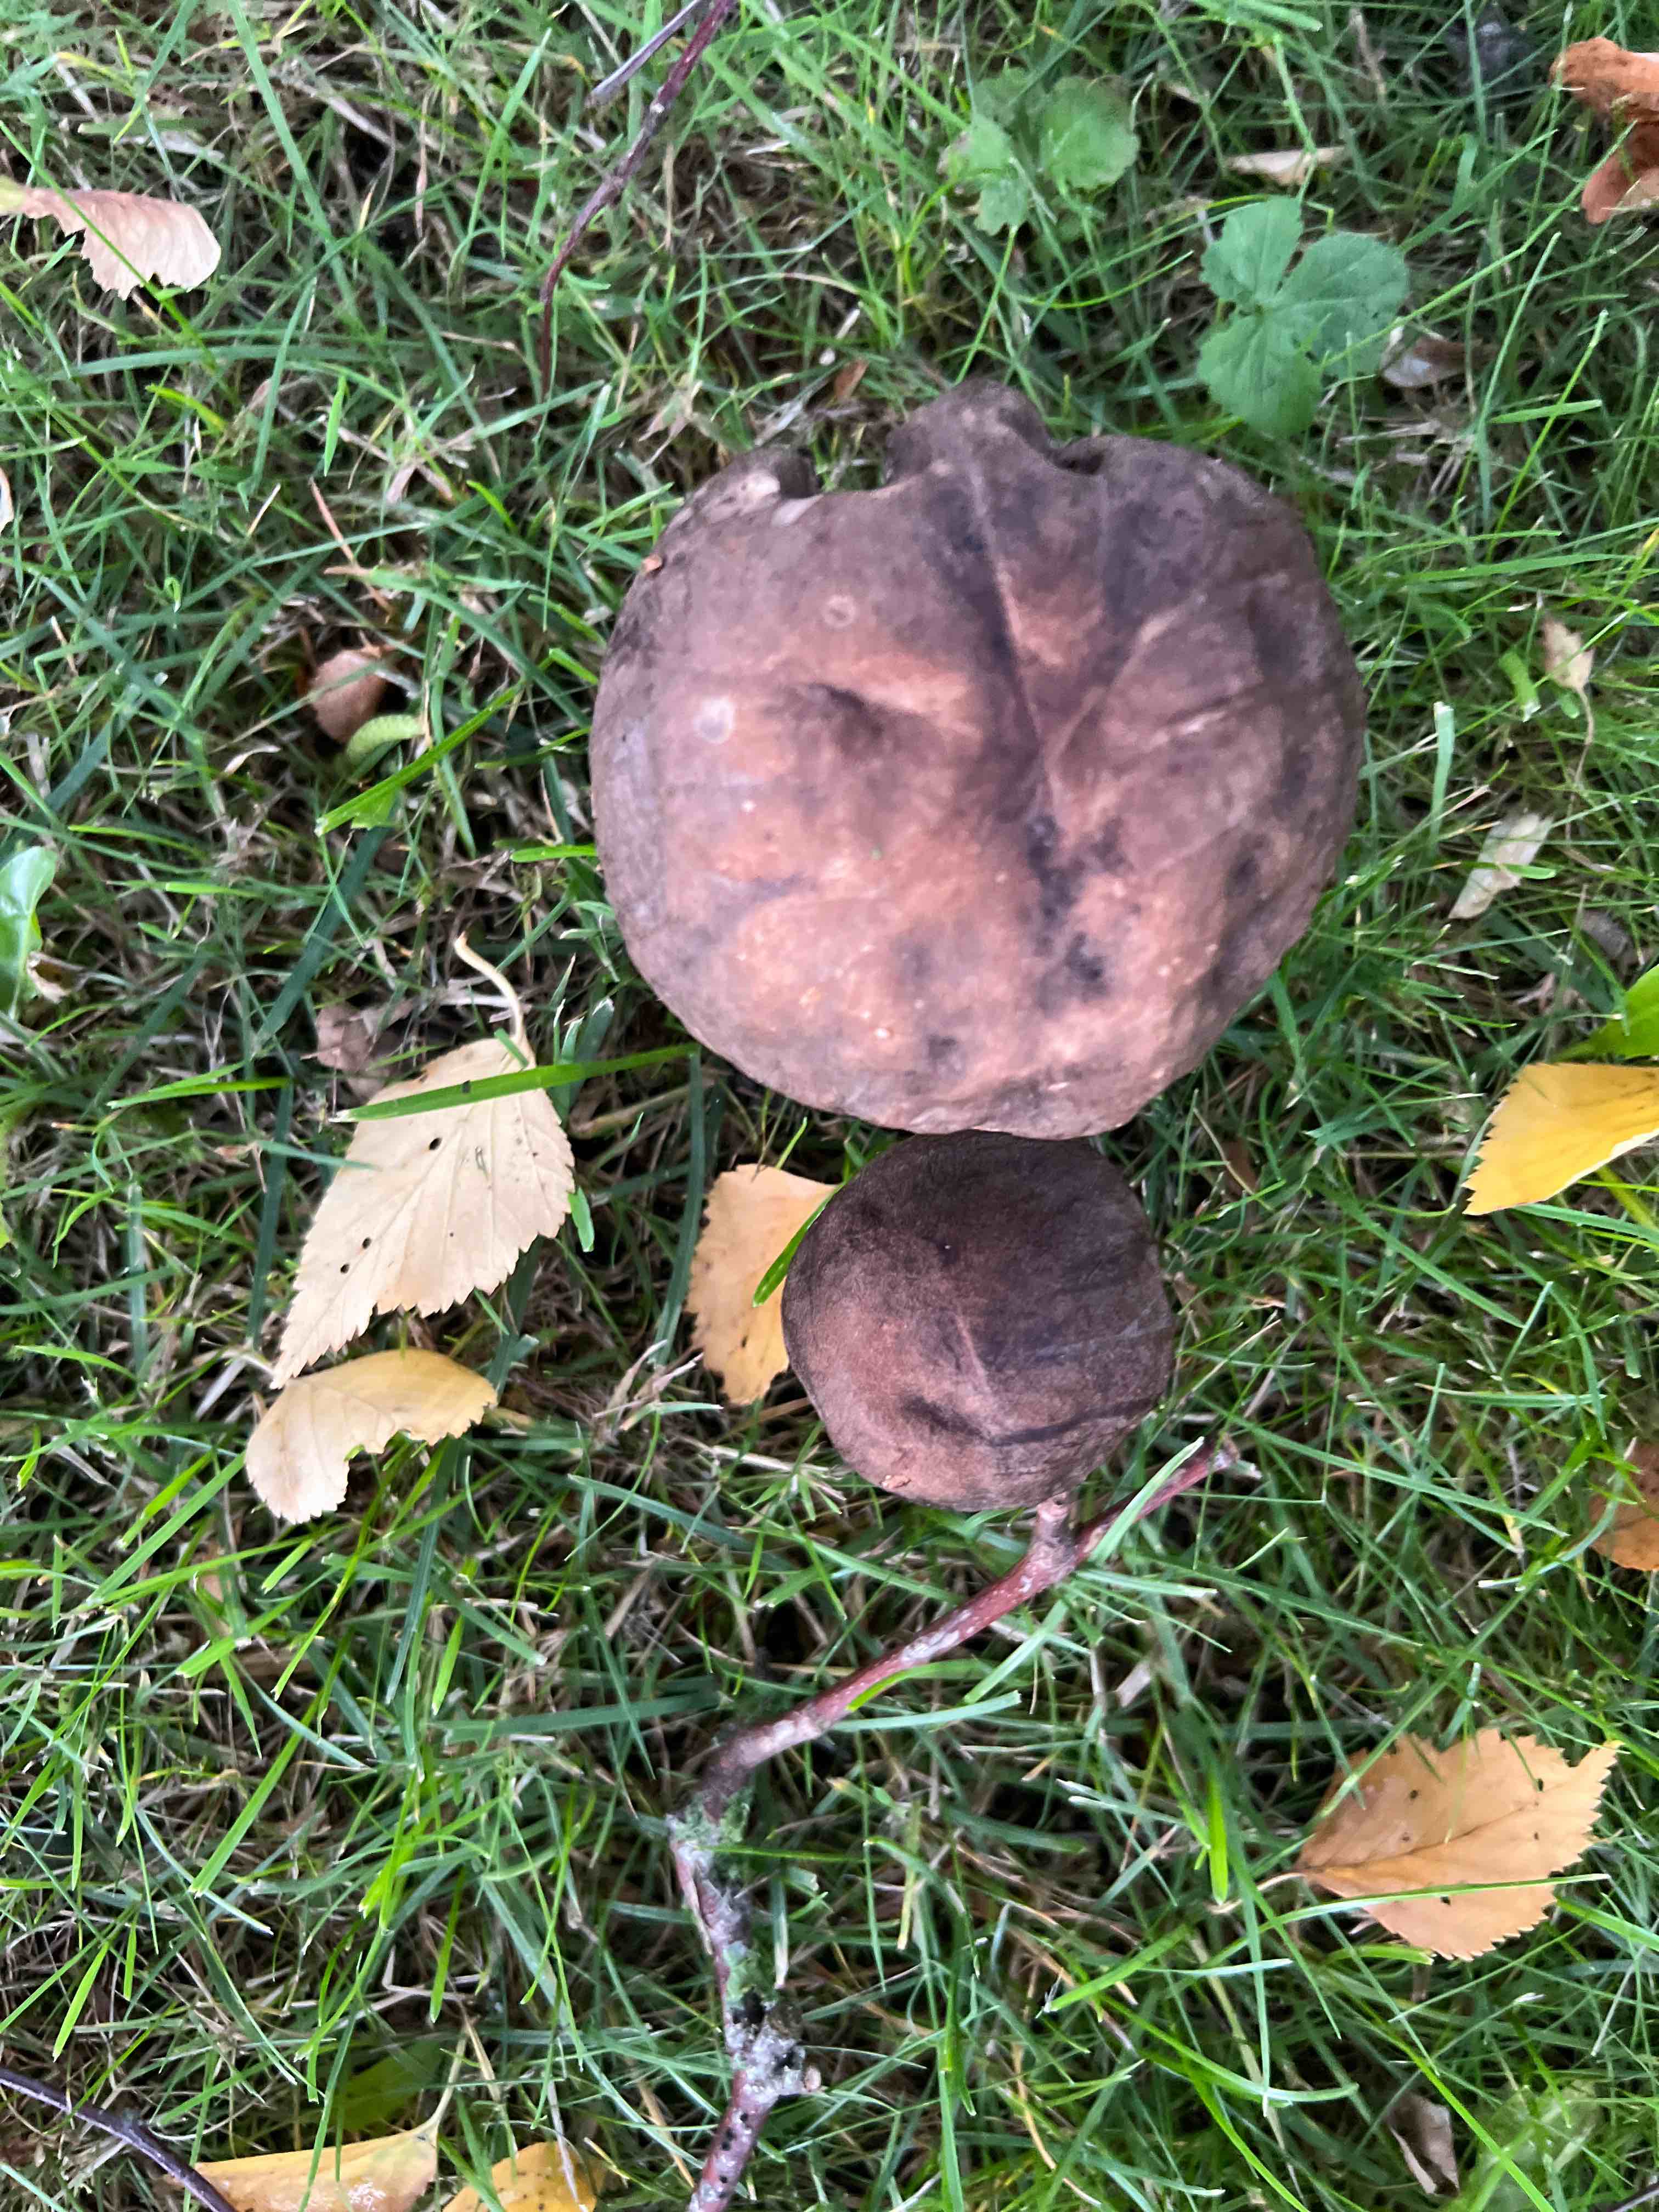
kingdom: Fungi
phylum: Basidiomycota
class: Agaricomycetes
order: Boletales
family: Boletaceae
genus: Leccinum
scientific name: Leccinum scabrum
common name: brun skælrørhat
